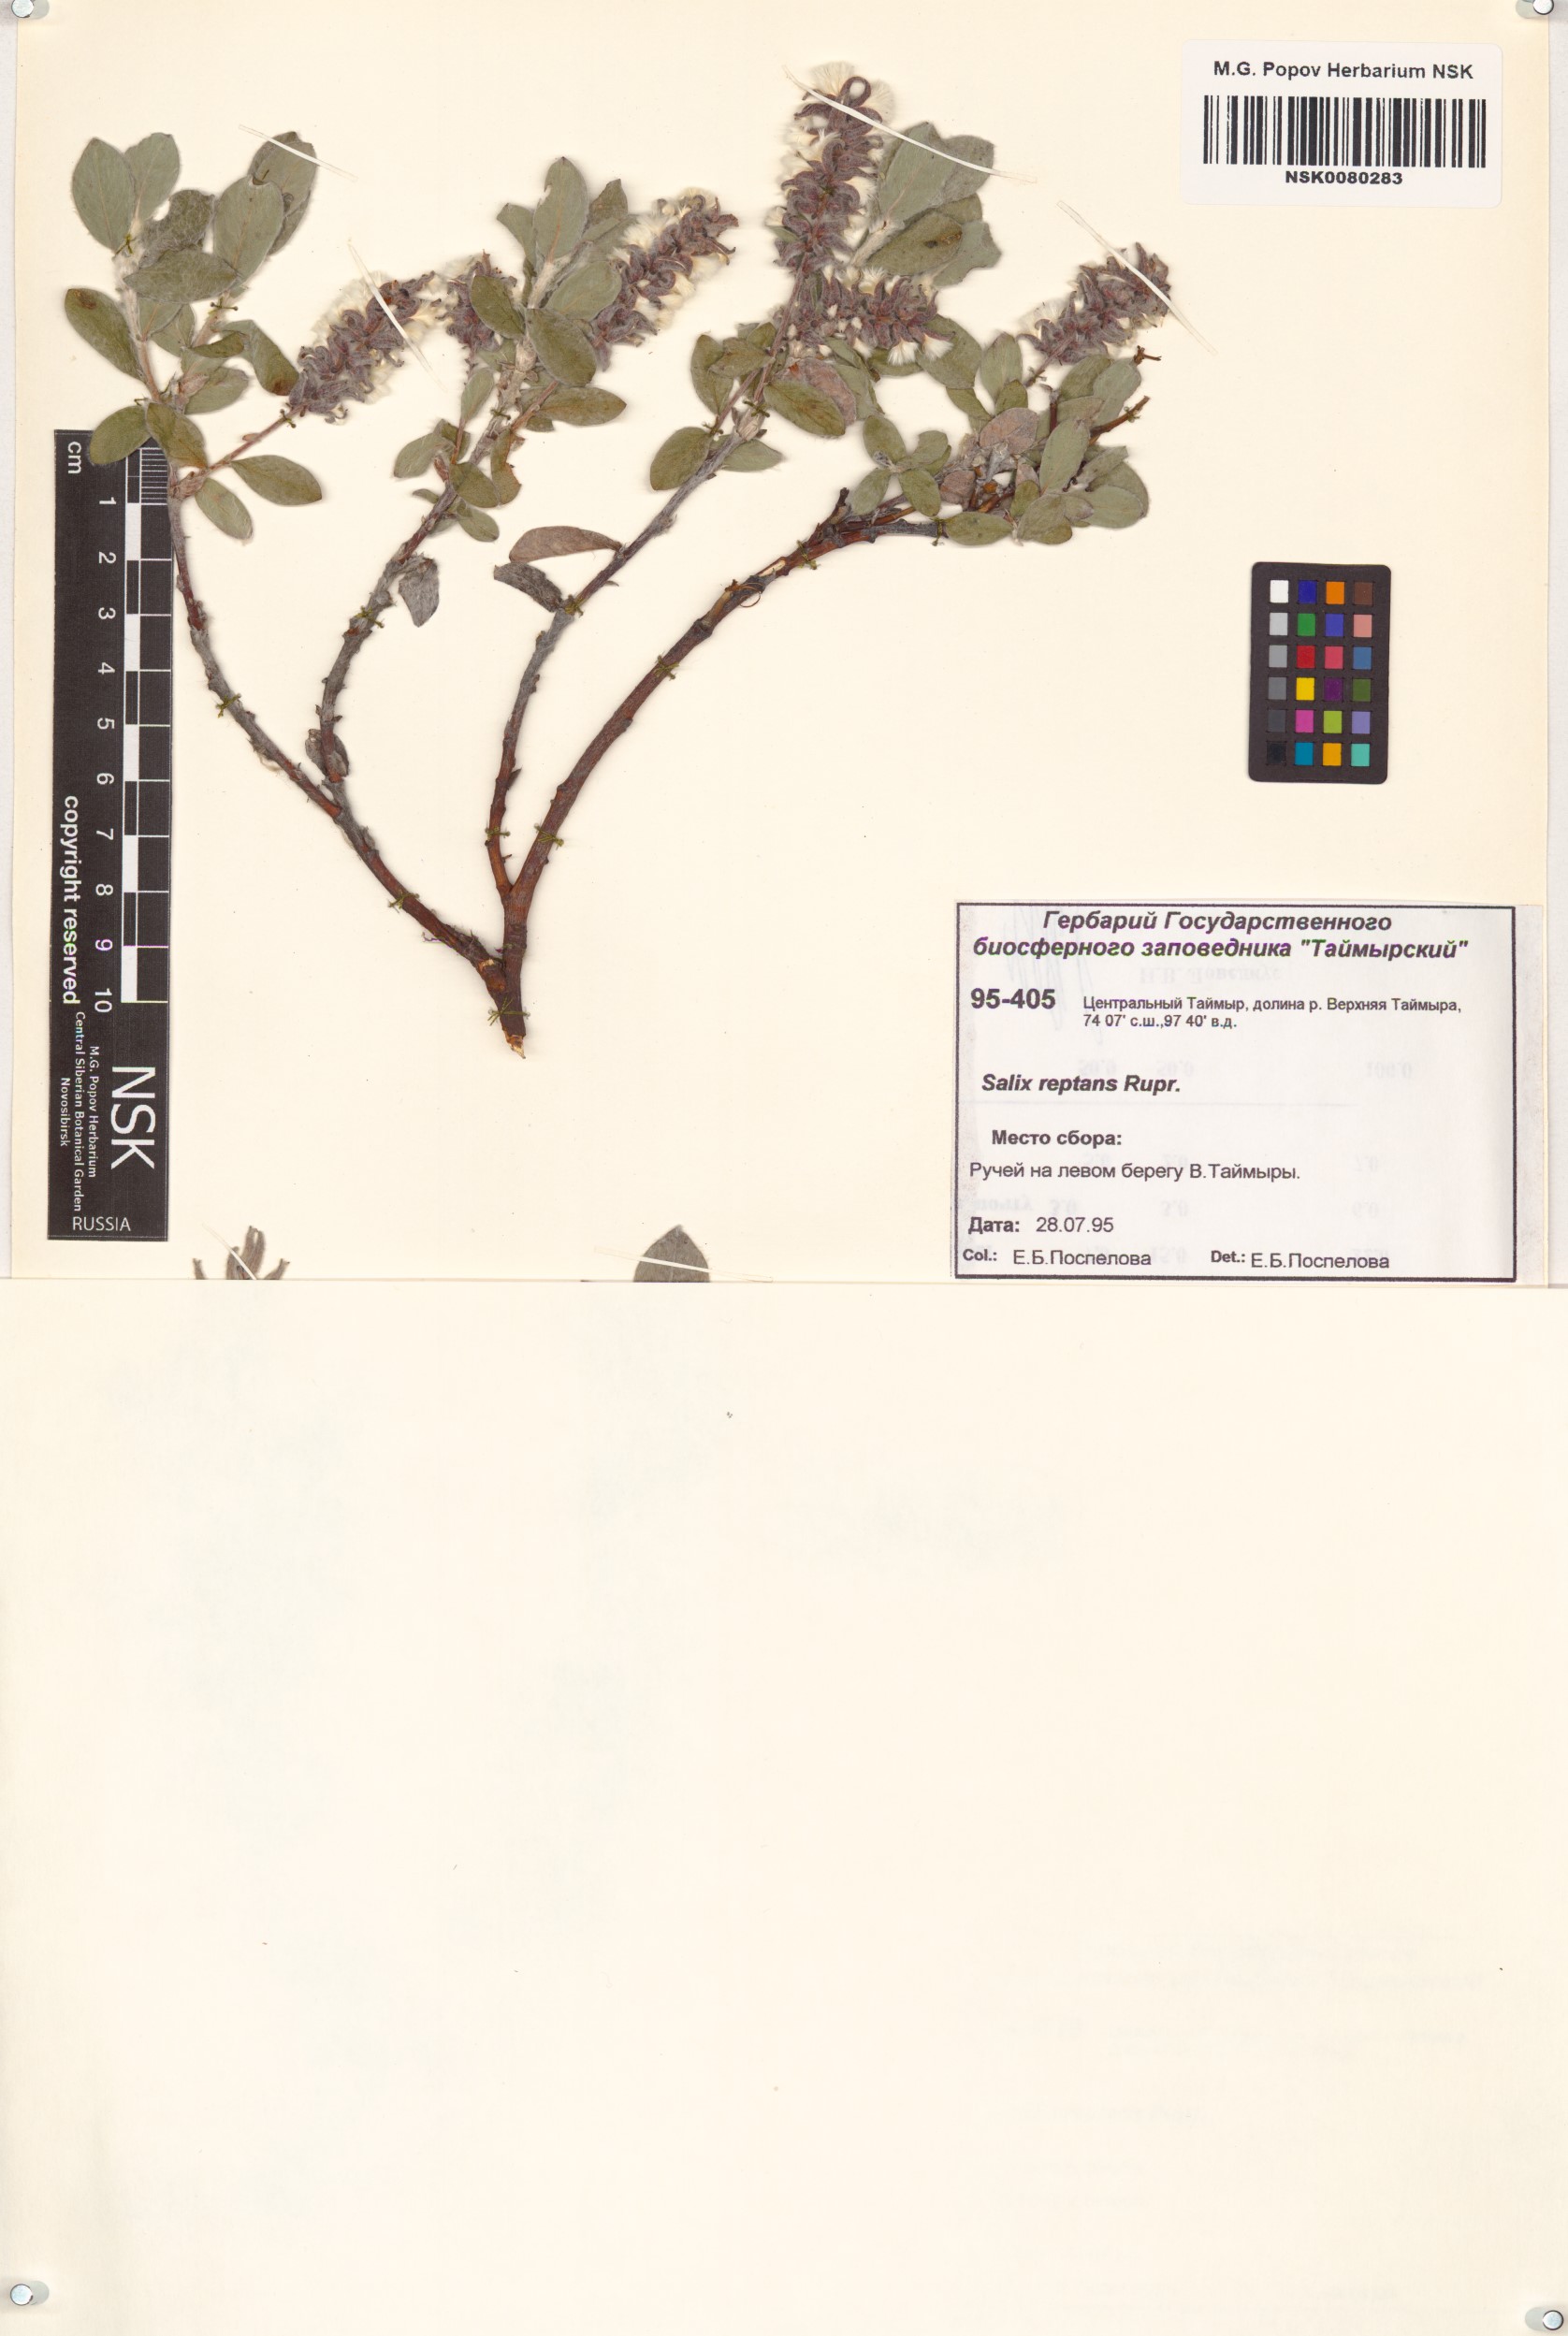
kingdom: Plantae
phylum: Tracheophyta
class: Magnoliopsida
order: Malpighiales
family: Salicaceae
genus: Salix
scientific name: Salix reptans
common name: Arctic creeping willow
